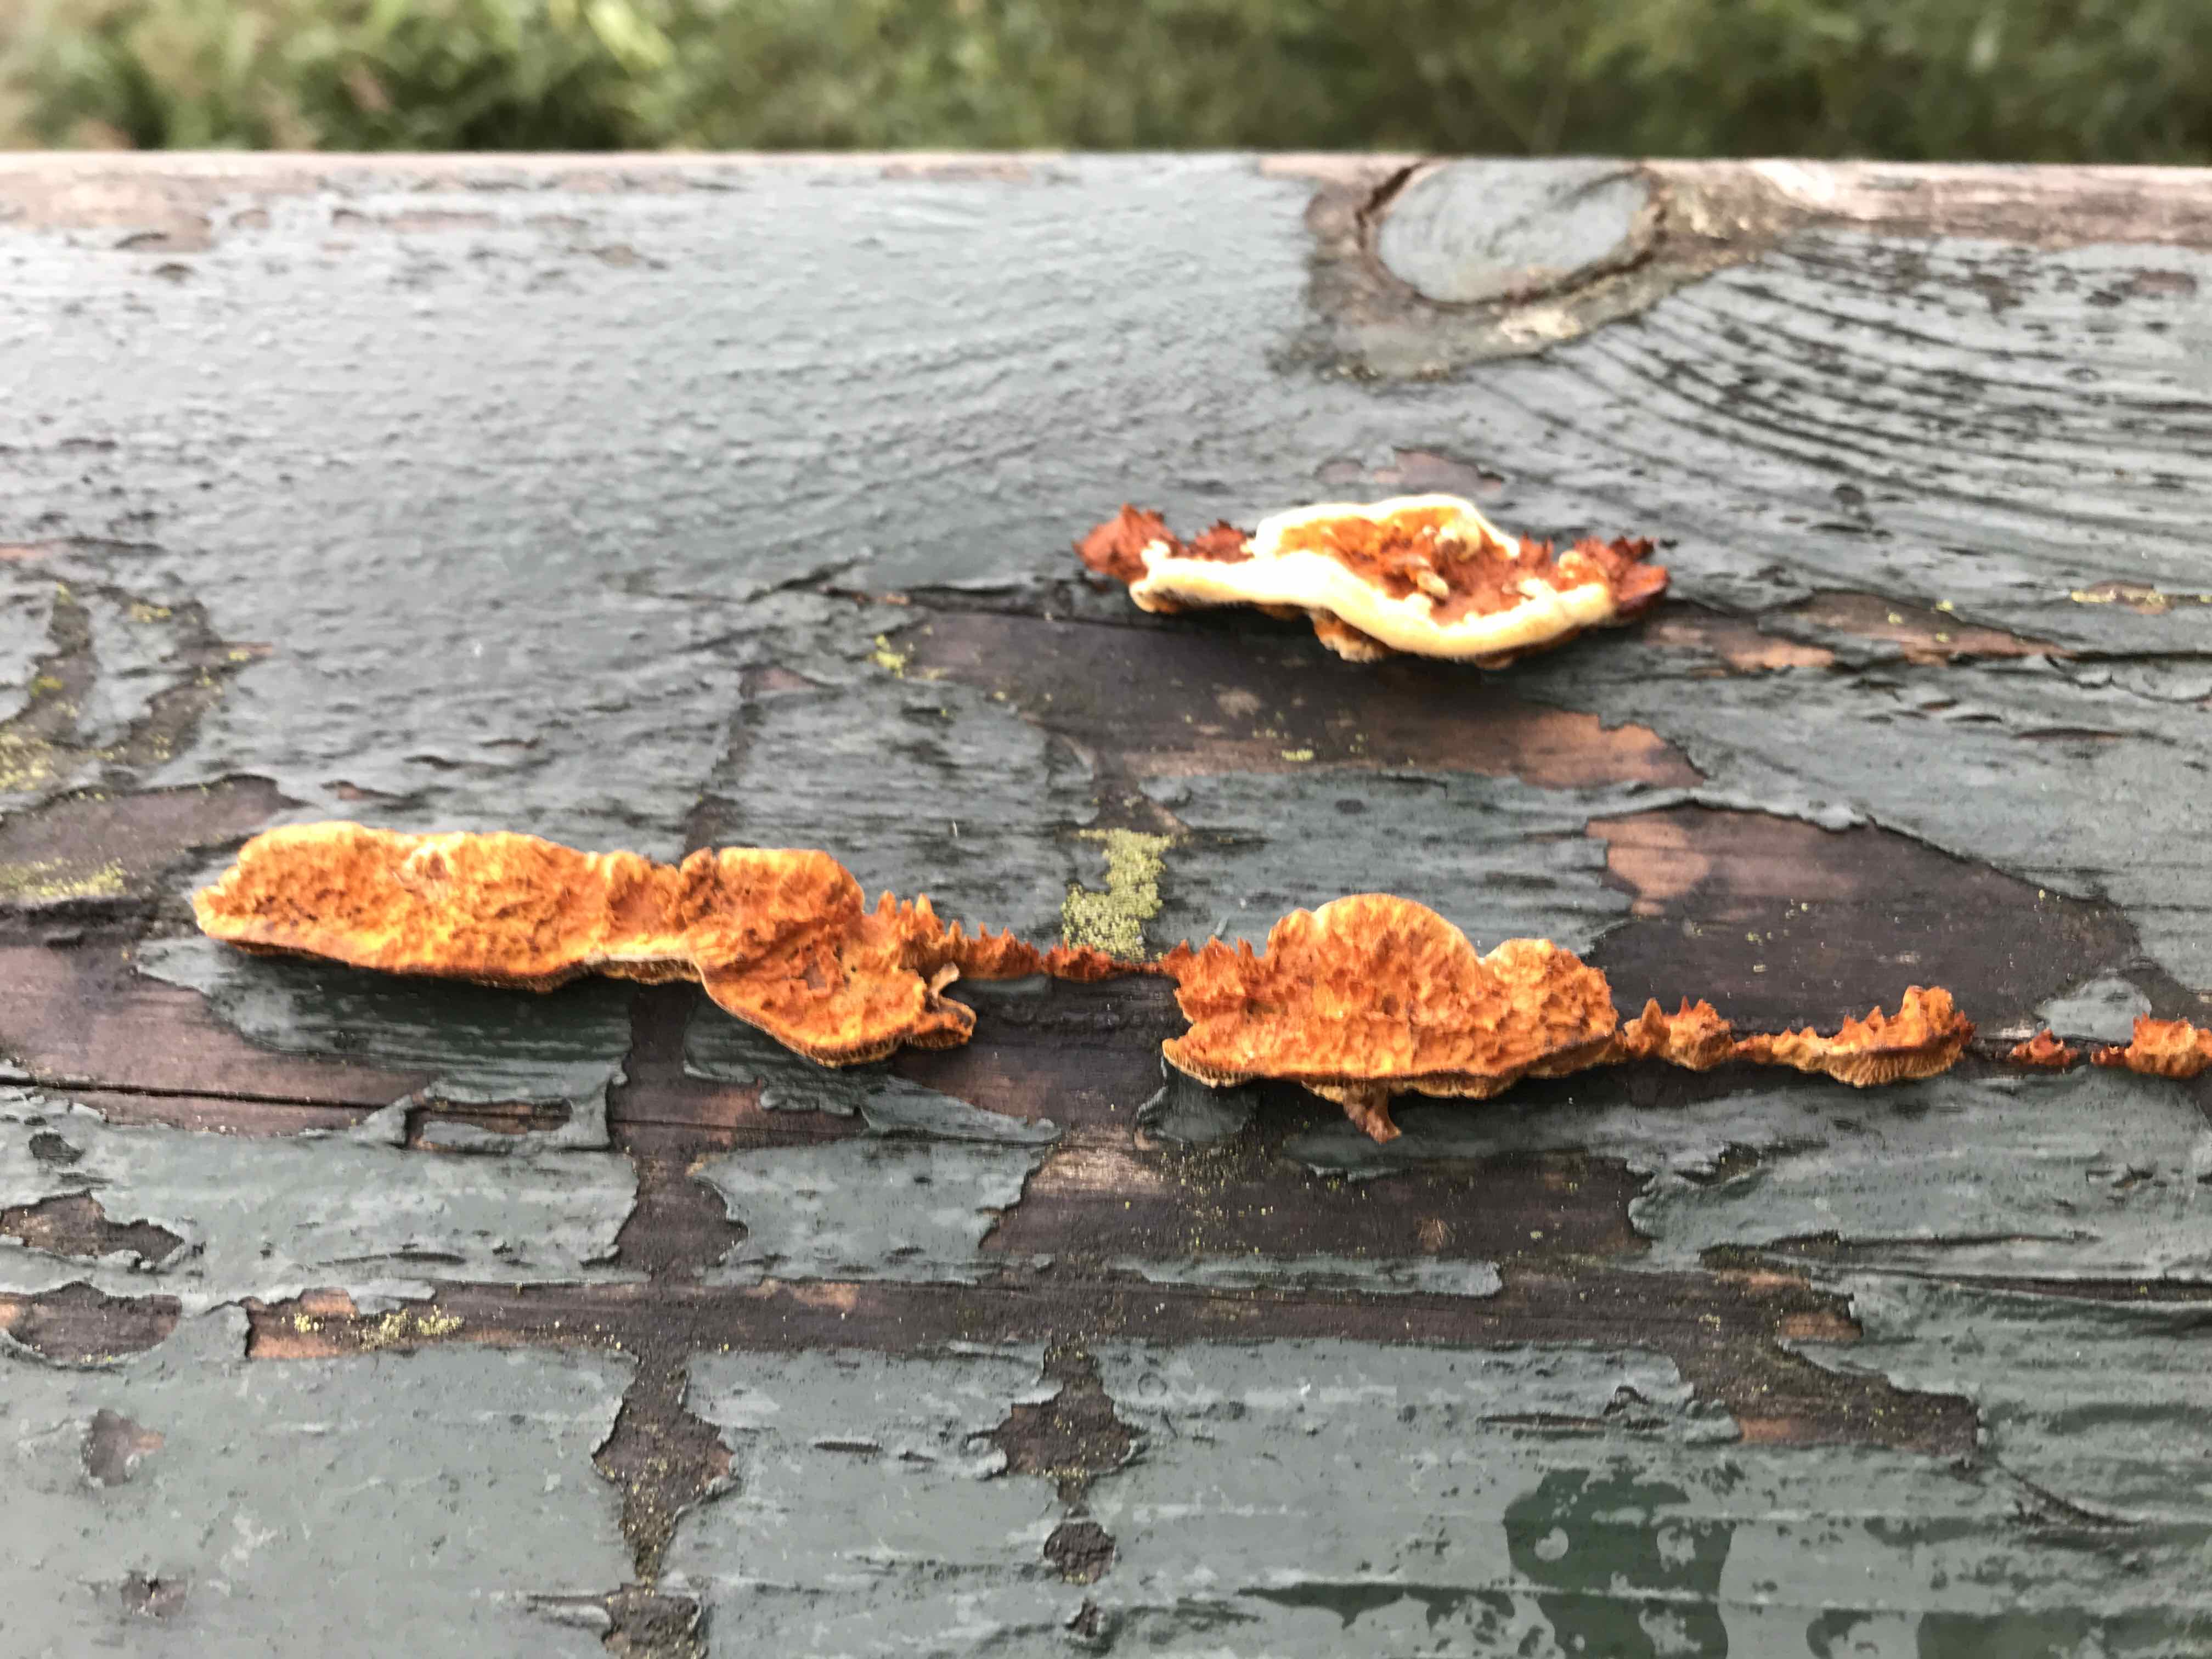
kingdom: Fungi
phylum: Basidiomycota
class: Agaricomycetes
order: Hymenochaetales
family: Hymenochaetaceae
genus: Fuscoporia
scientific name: Fuscoporia ferrea
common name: skorpe-ildporesvamp
